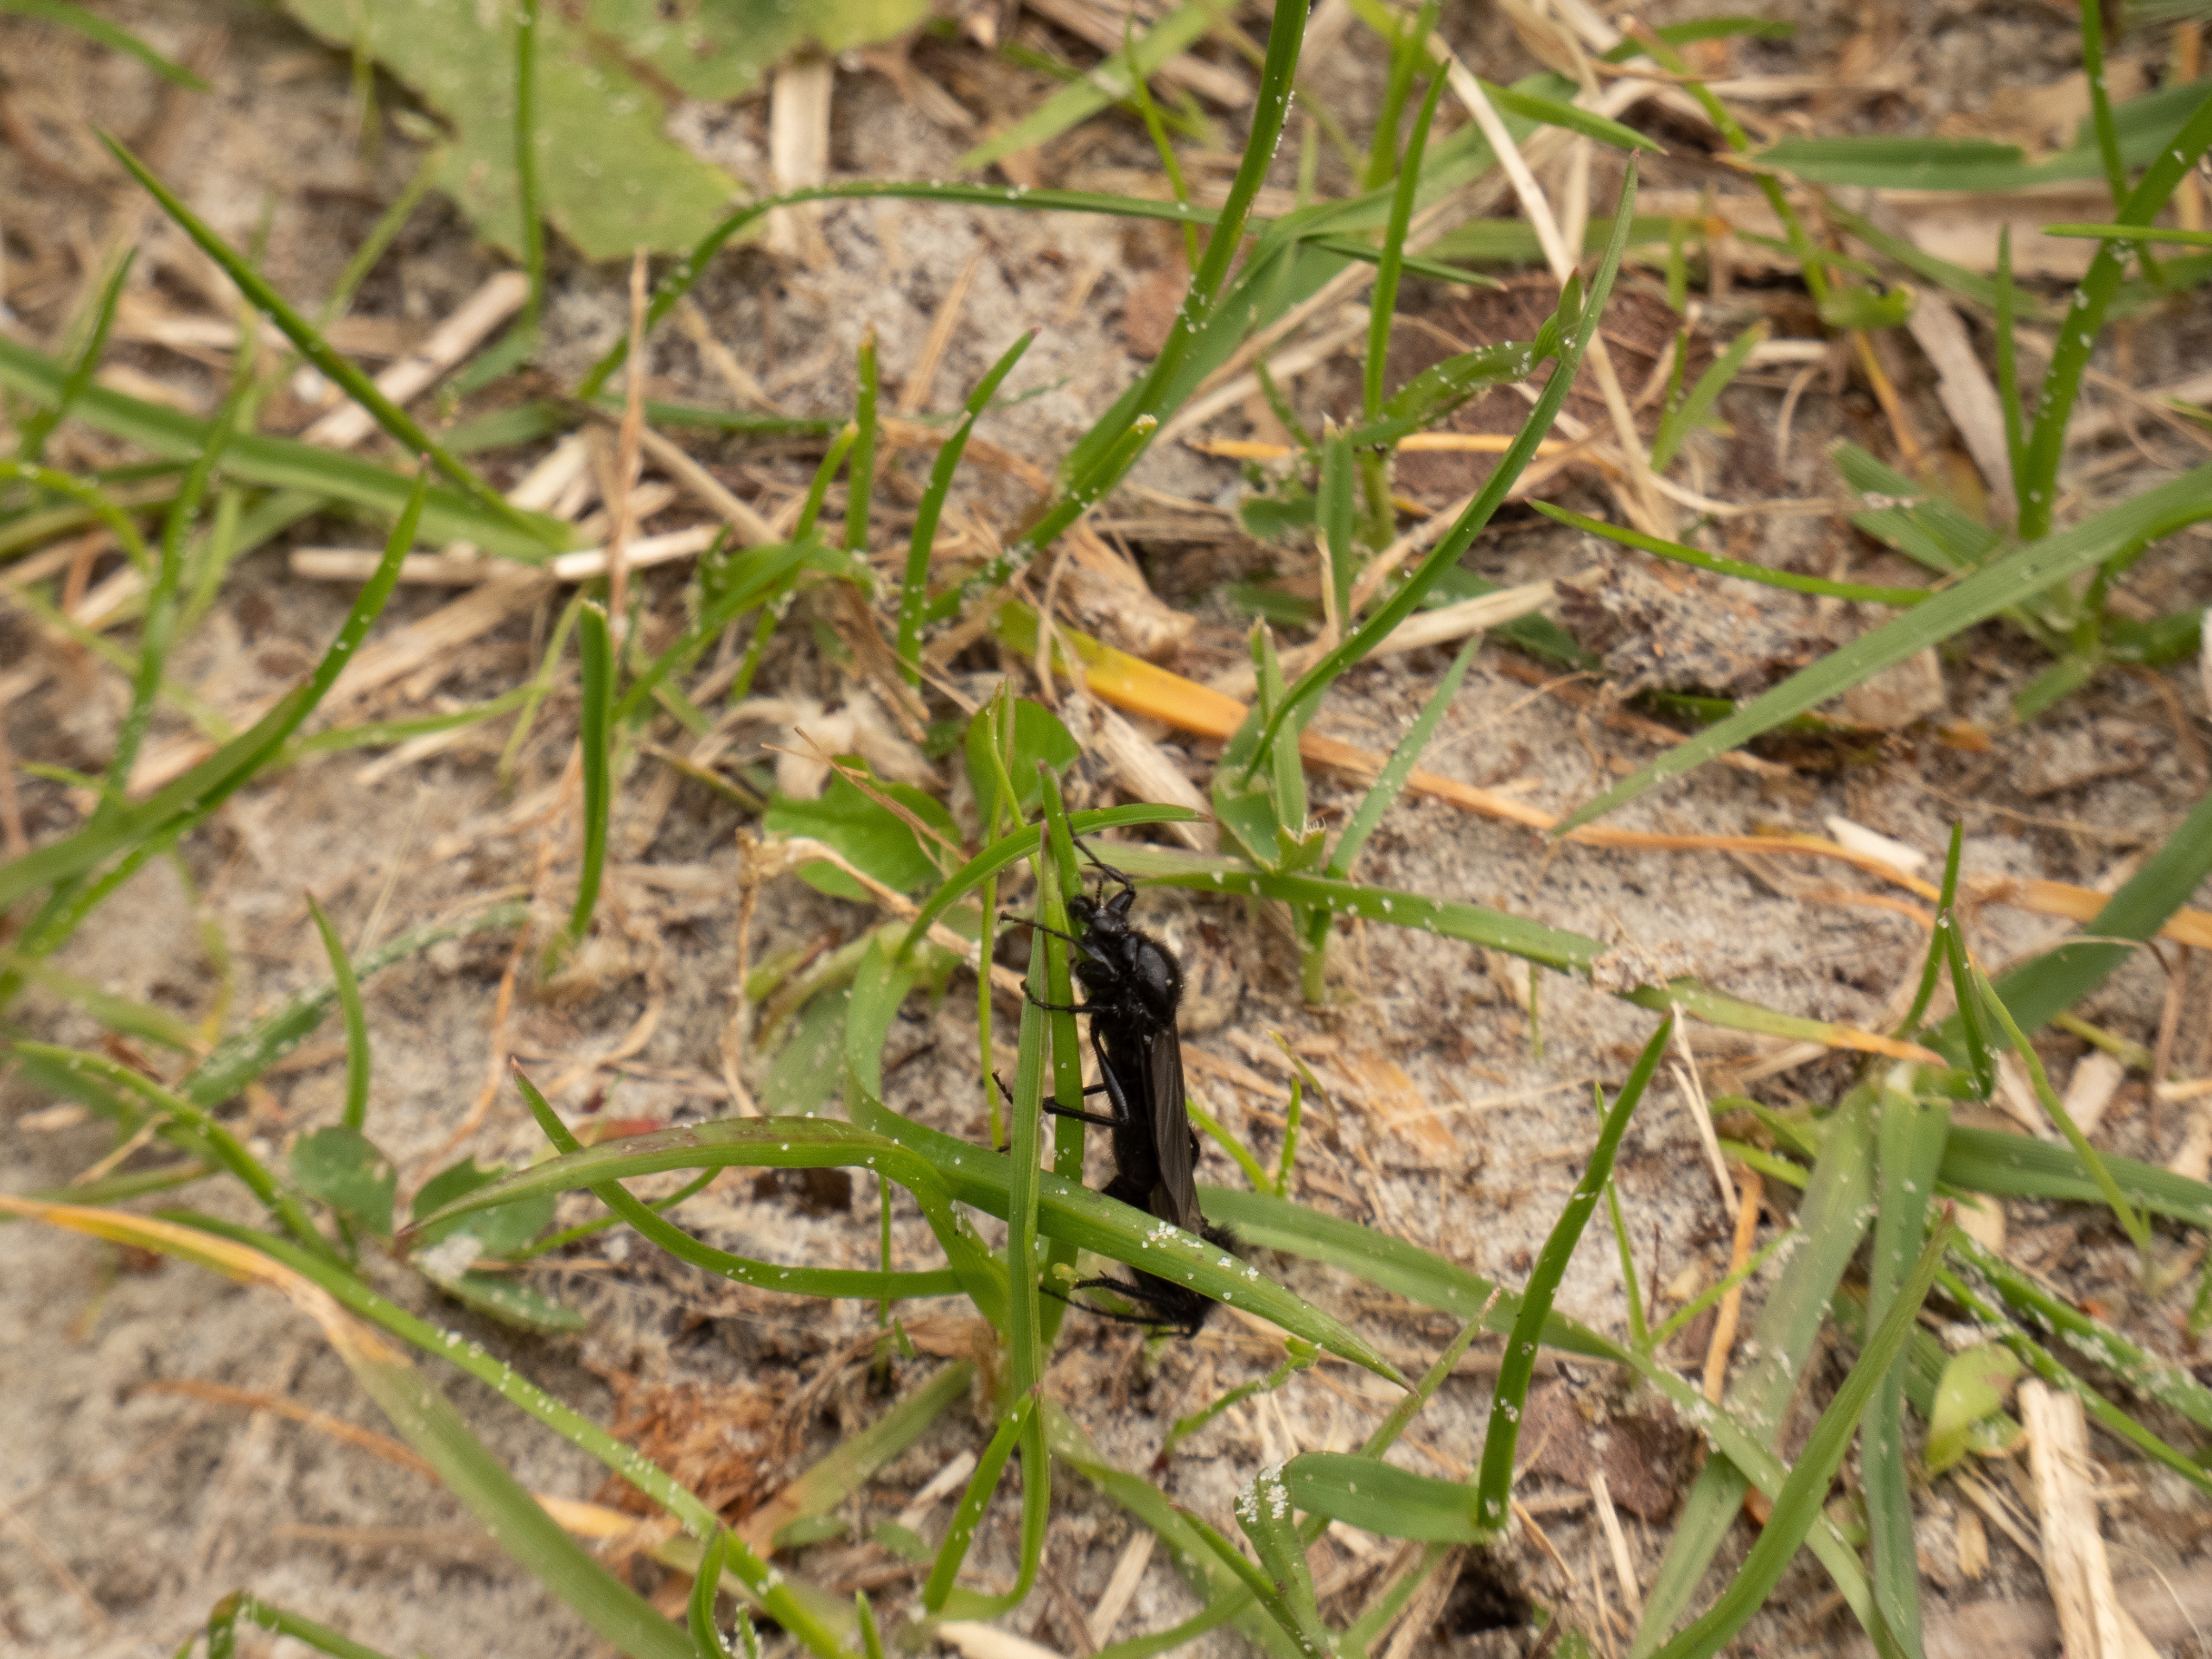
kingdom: Animalia
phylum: Arthropoda
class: Insecta
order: Diptera
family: Bibionidae
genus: Bibio
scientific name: Bibio marci
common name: Skovhårmyg
